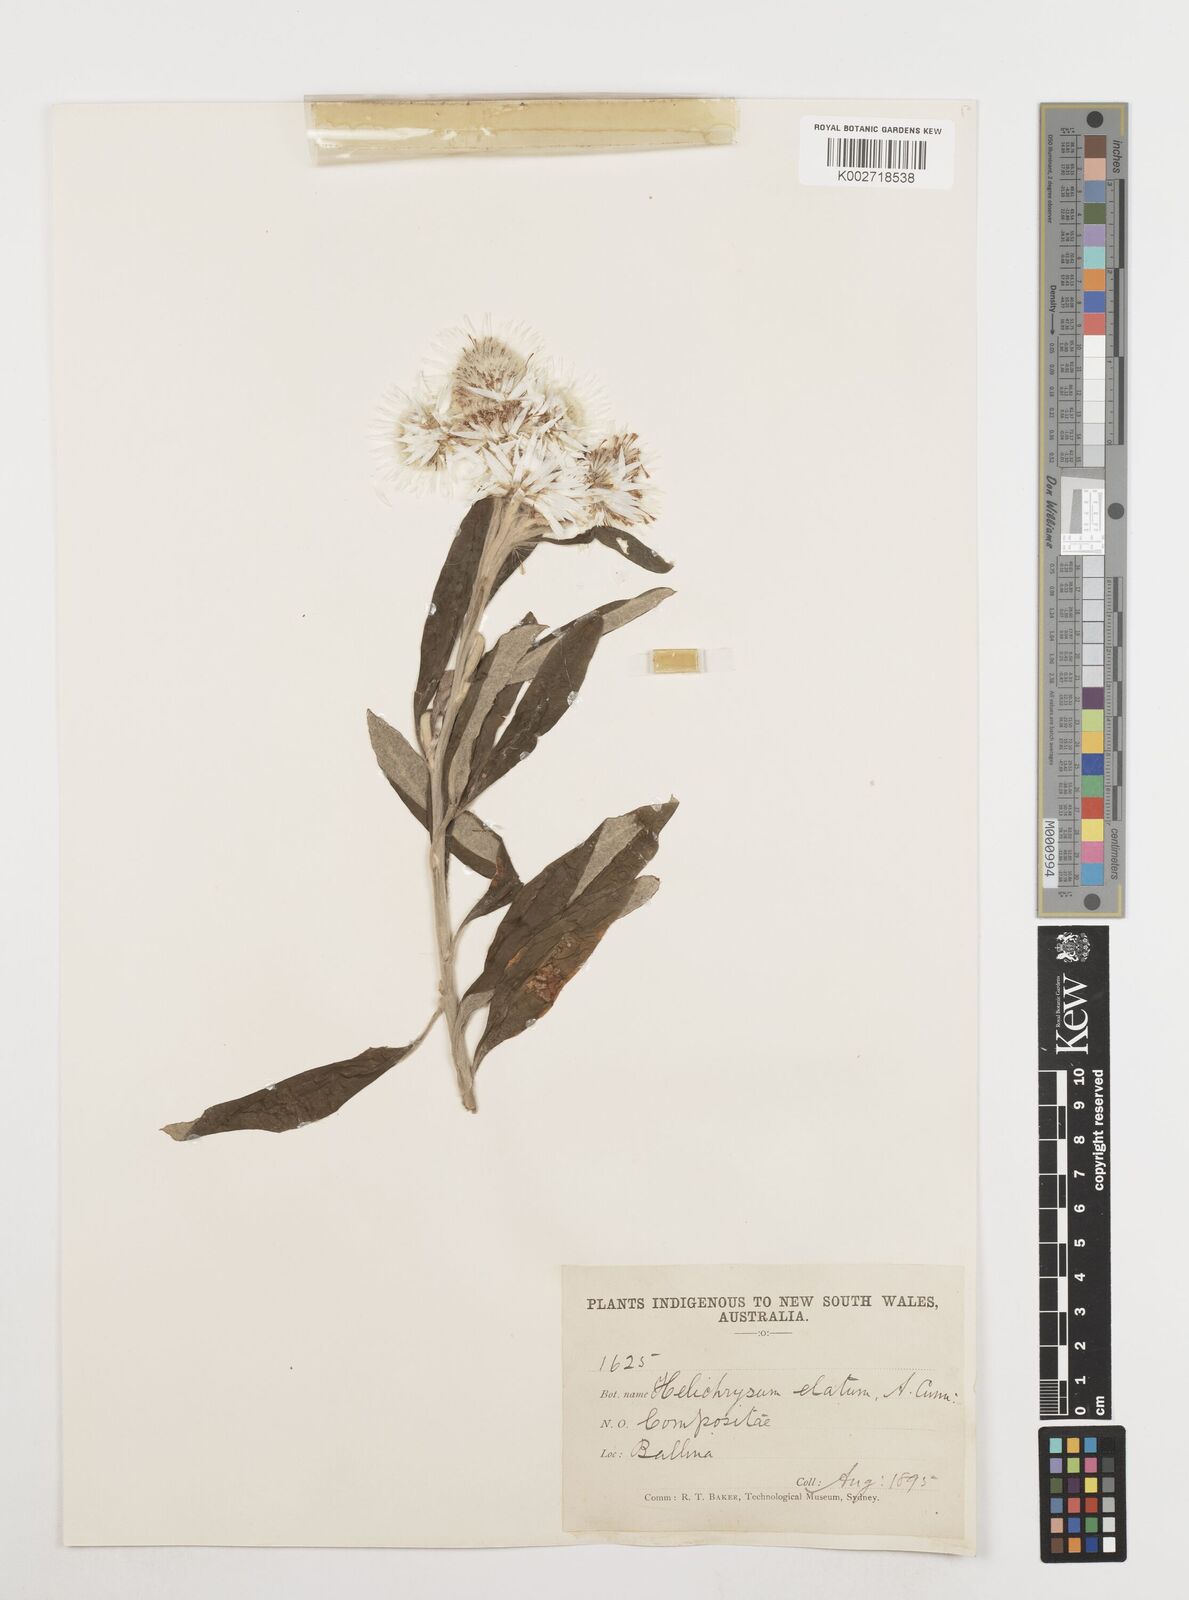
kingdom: Plantae
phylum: Tracheophyta
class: Magnoliopsida
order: Asterales
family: Asteraceae
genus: Leucozoma
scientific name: Leucozoma elatum
